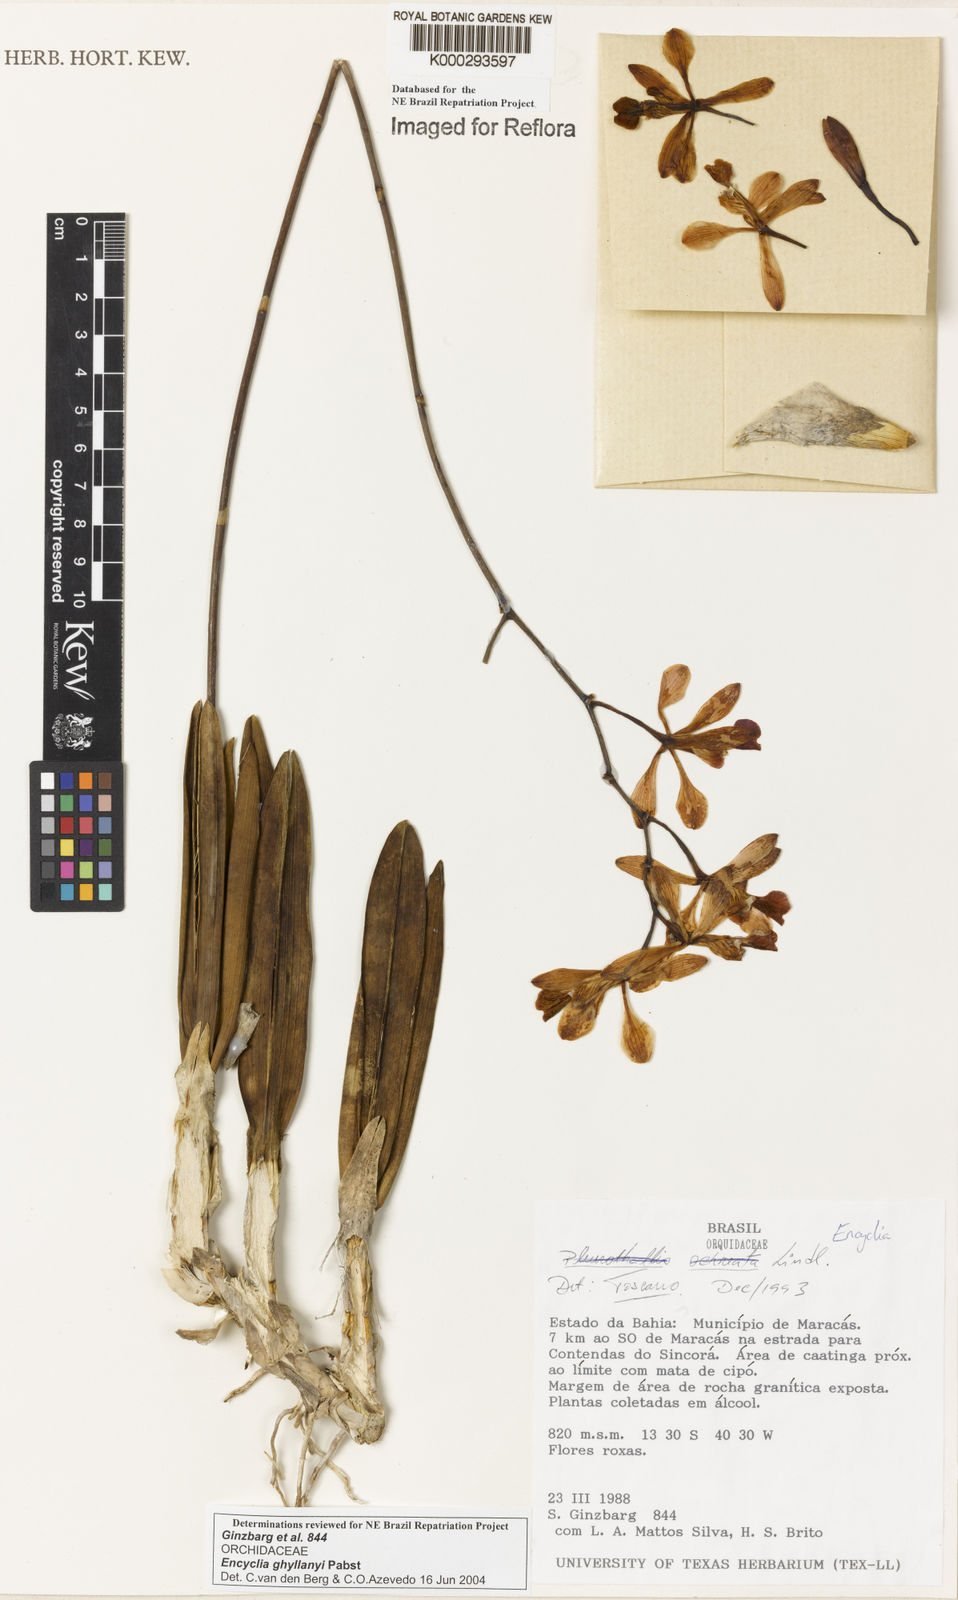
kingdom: Plantae
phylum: Tracheophyta
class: Liliopsida
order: Asparagales
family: Orchidaceae
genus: Encyclia
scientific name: Encyclia jenischiana
